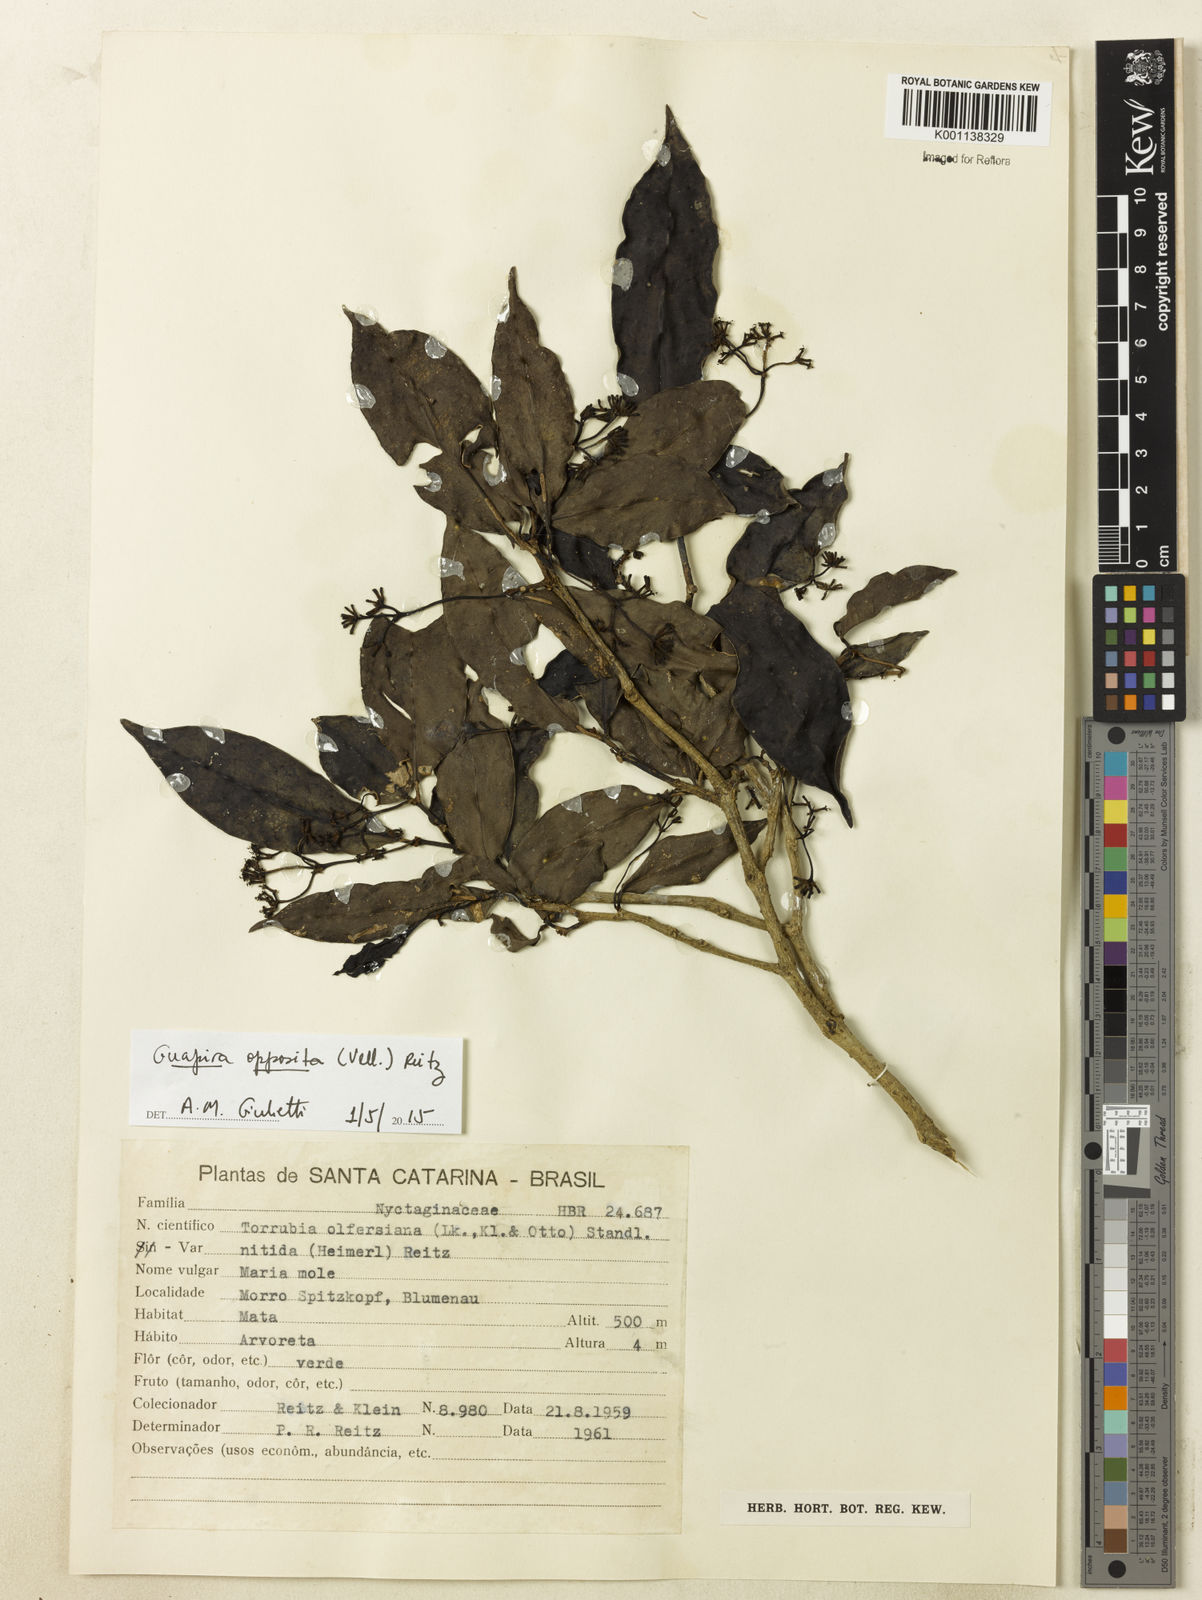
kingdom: Plantae
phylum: Tracheophyta
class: Magnoliopsida
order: Caryophyllales
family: Nyctaginaceae
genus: Guapira
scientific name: Guapira opposita
